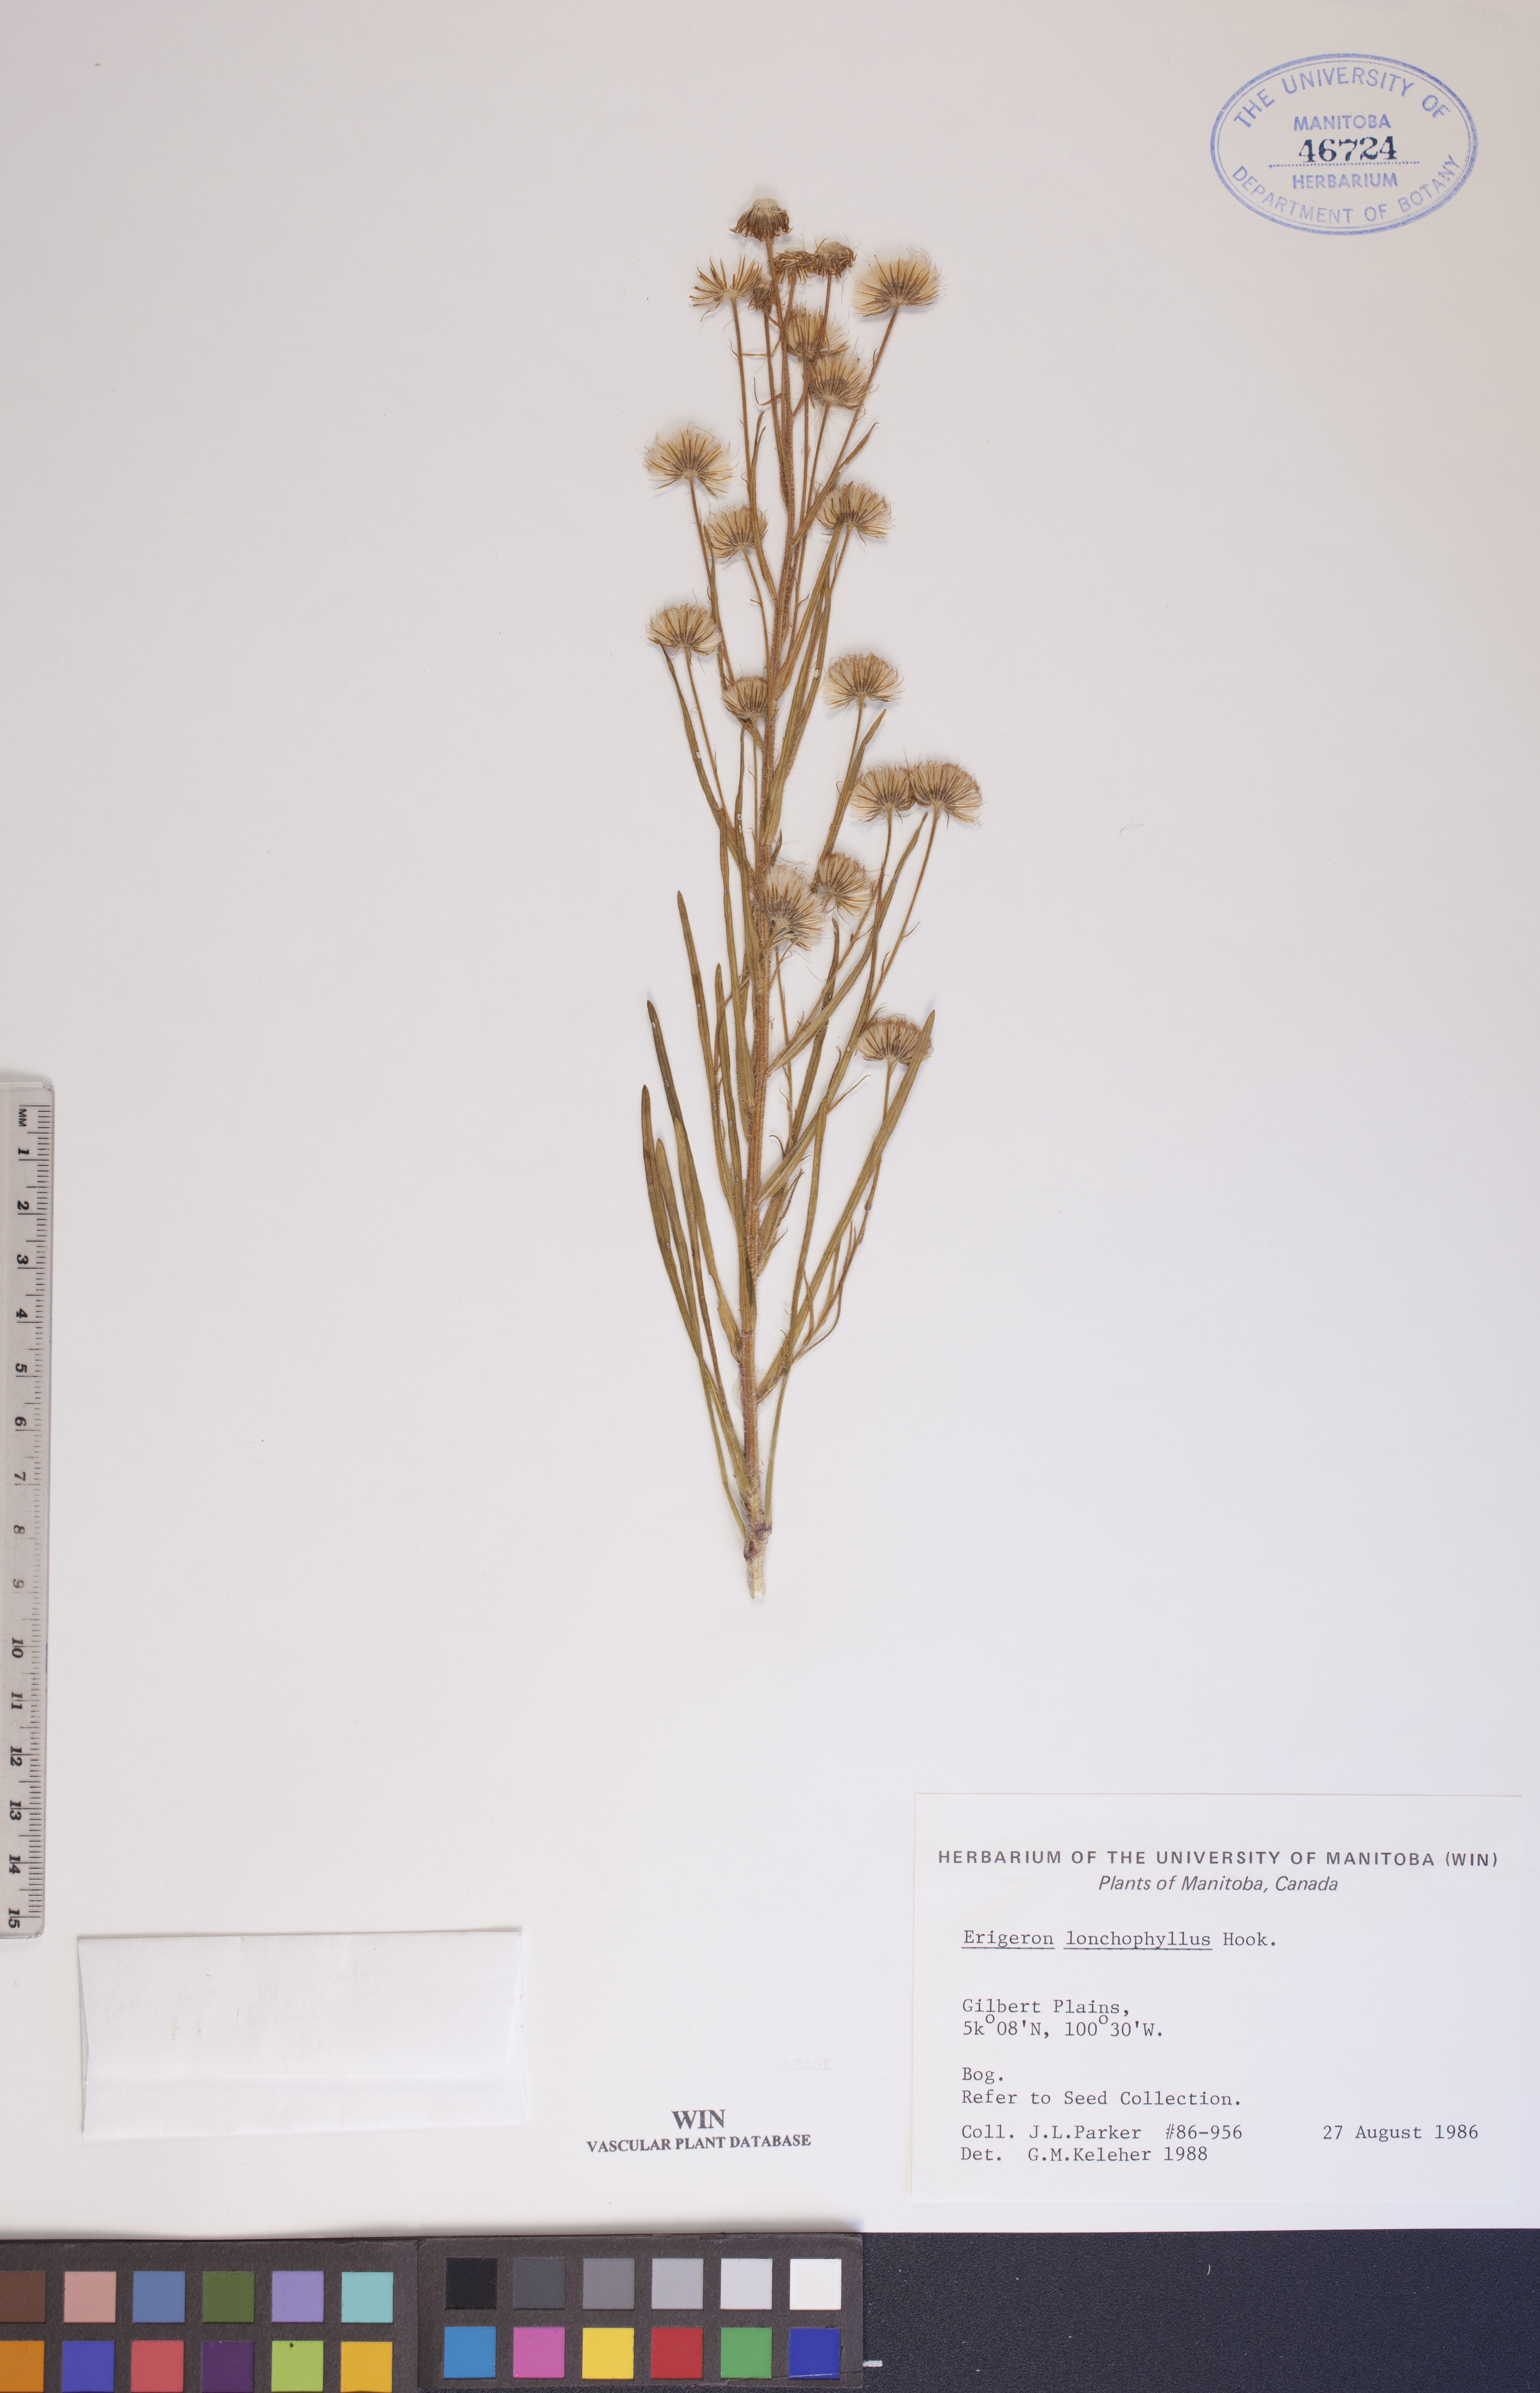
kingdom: Plantae
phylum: Tracheophyta
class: Magnoliopsida
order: Asterales
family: Asteraceae
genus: Erigeron
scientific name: Erigeron lonchophyllus
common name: Short-ray fleabane
